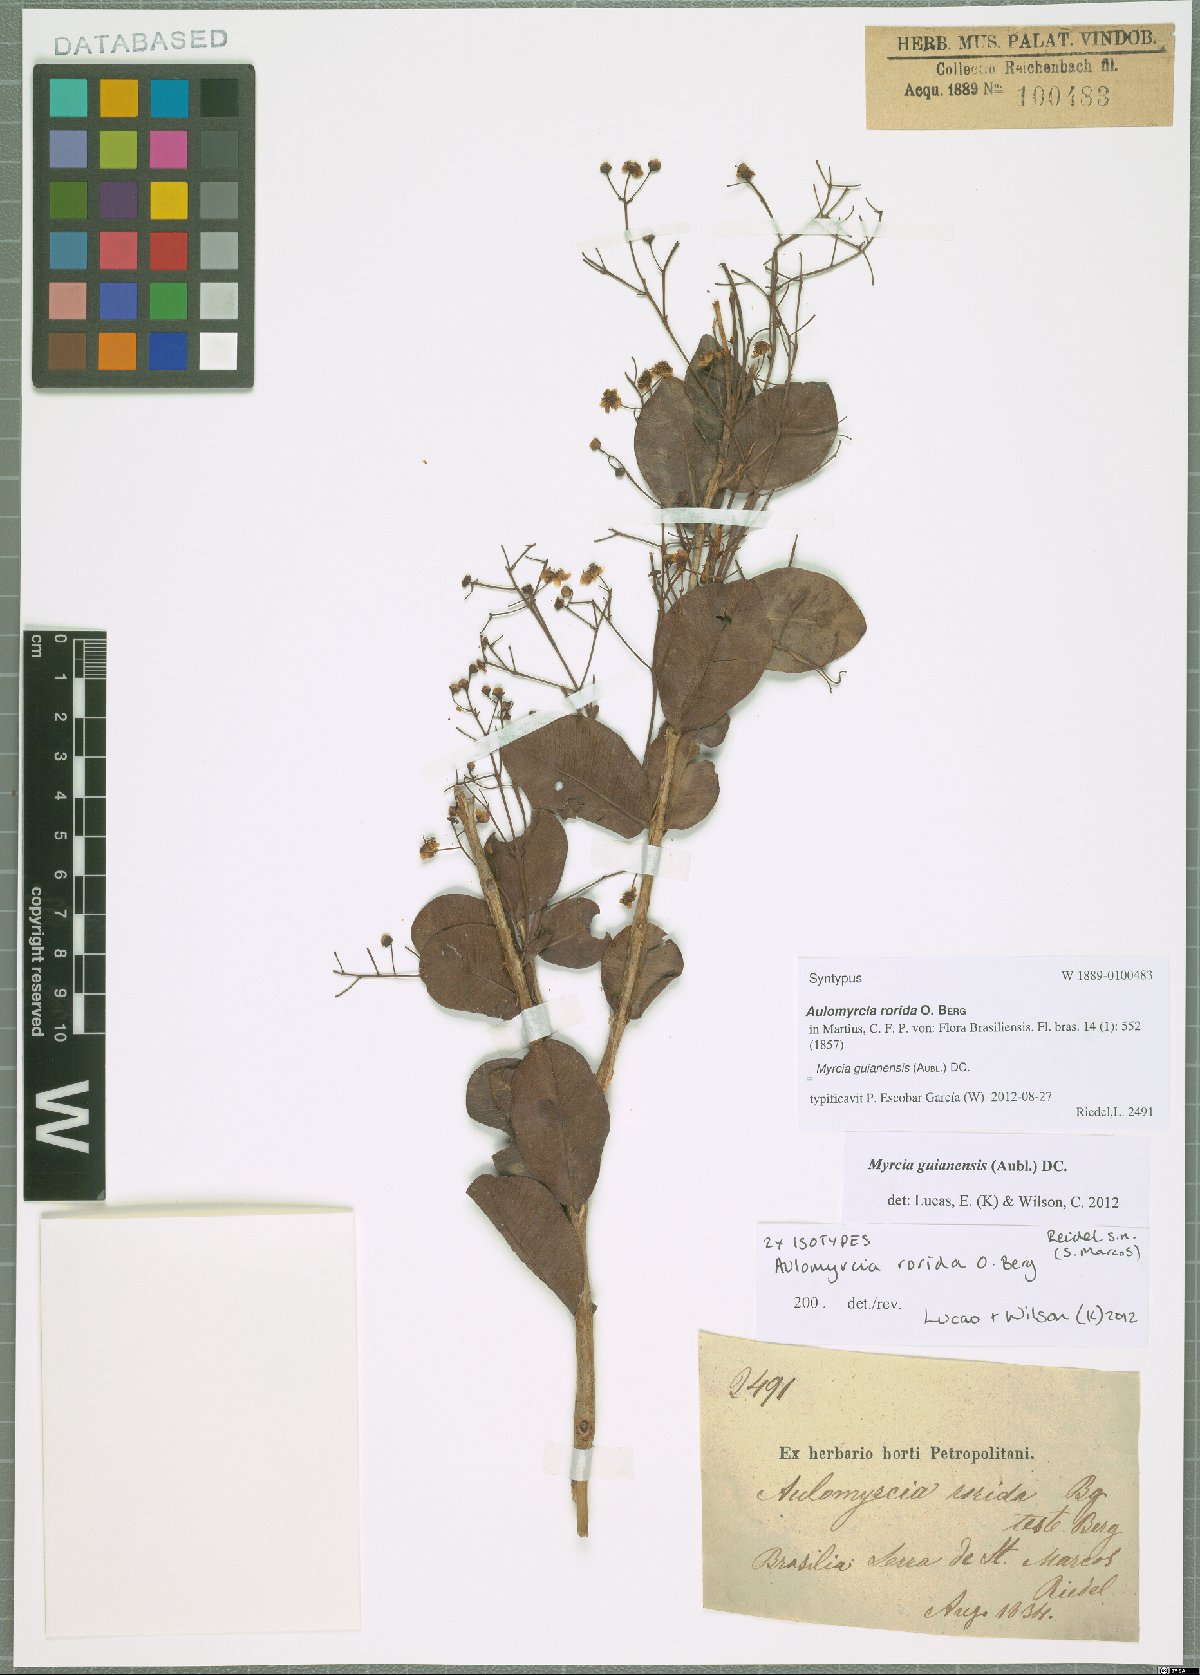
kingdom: Plantae
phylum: Tracheophyta
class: Magnoliopsida
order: Myrtales
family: Myrtaceae
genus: Myrcia
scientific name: Myrcia guianensis
